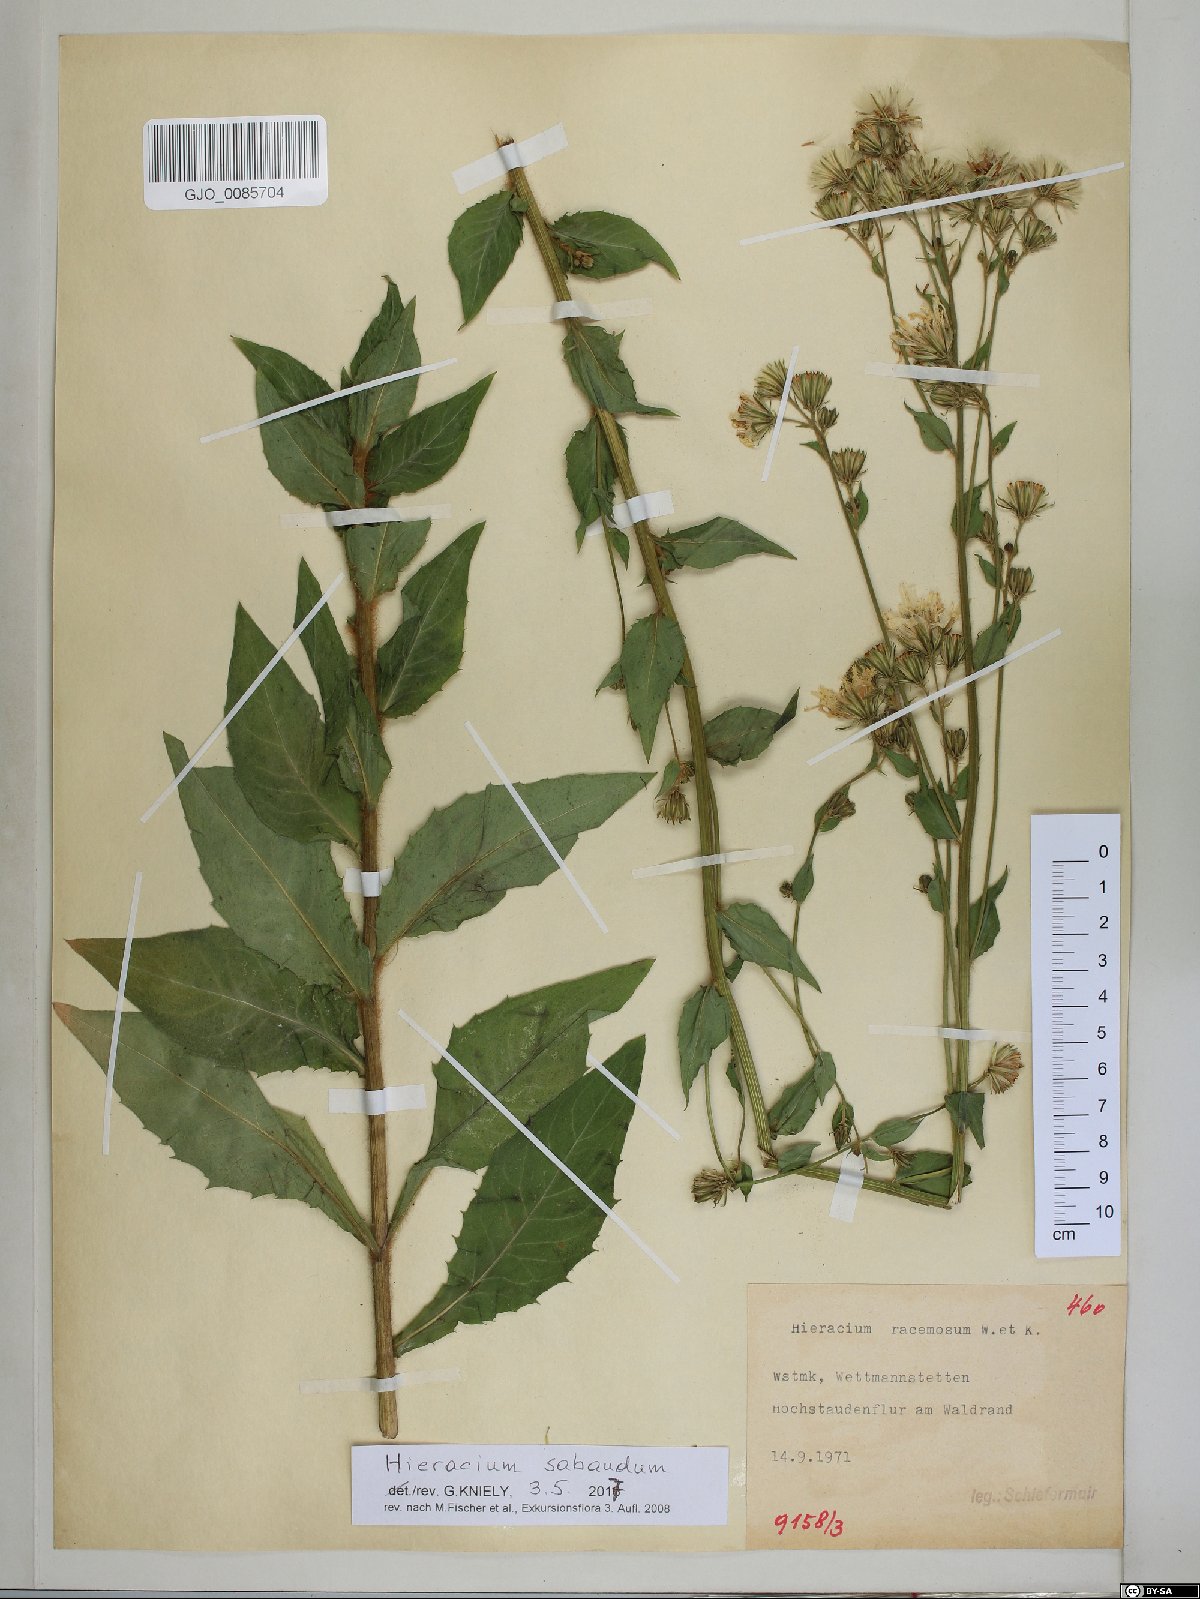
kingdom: Plantae
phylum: Tracheophyta
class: Magnoliopsida
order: Asterales
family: Asteraceae
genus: Hieracium
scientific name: Hieracium sabaudum
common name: New england hawkweed
